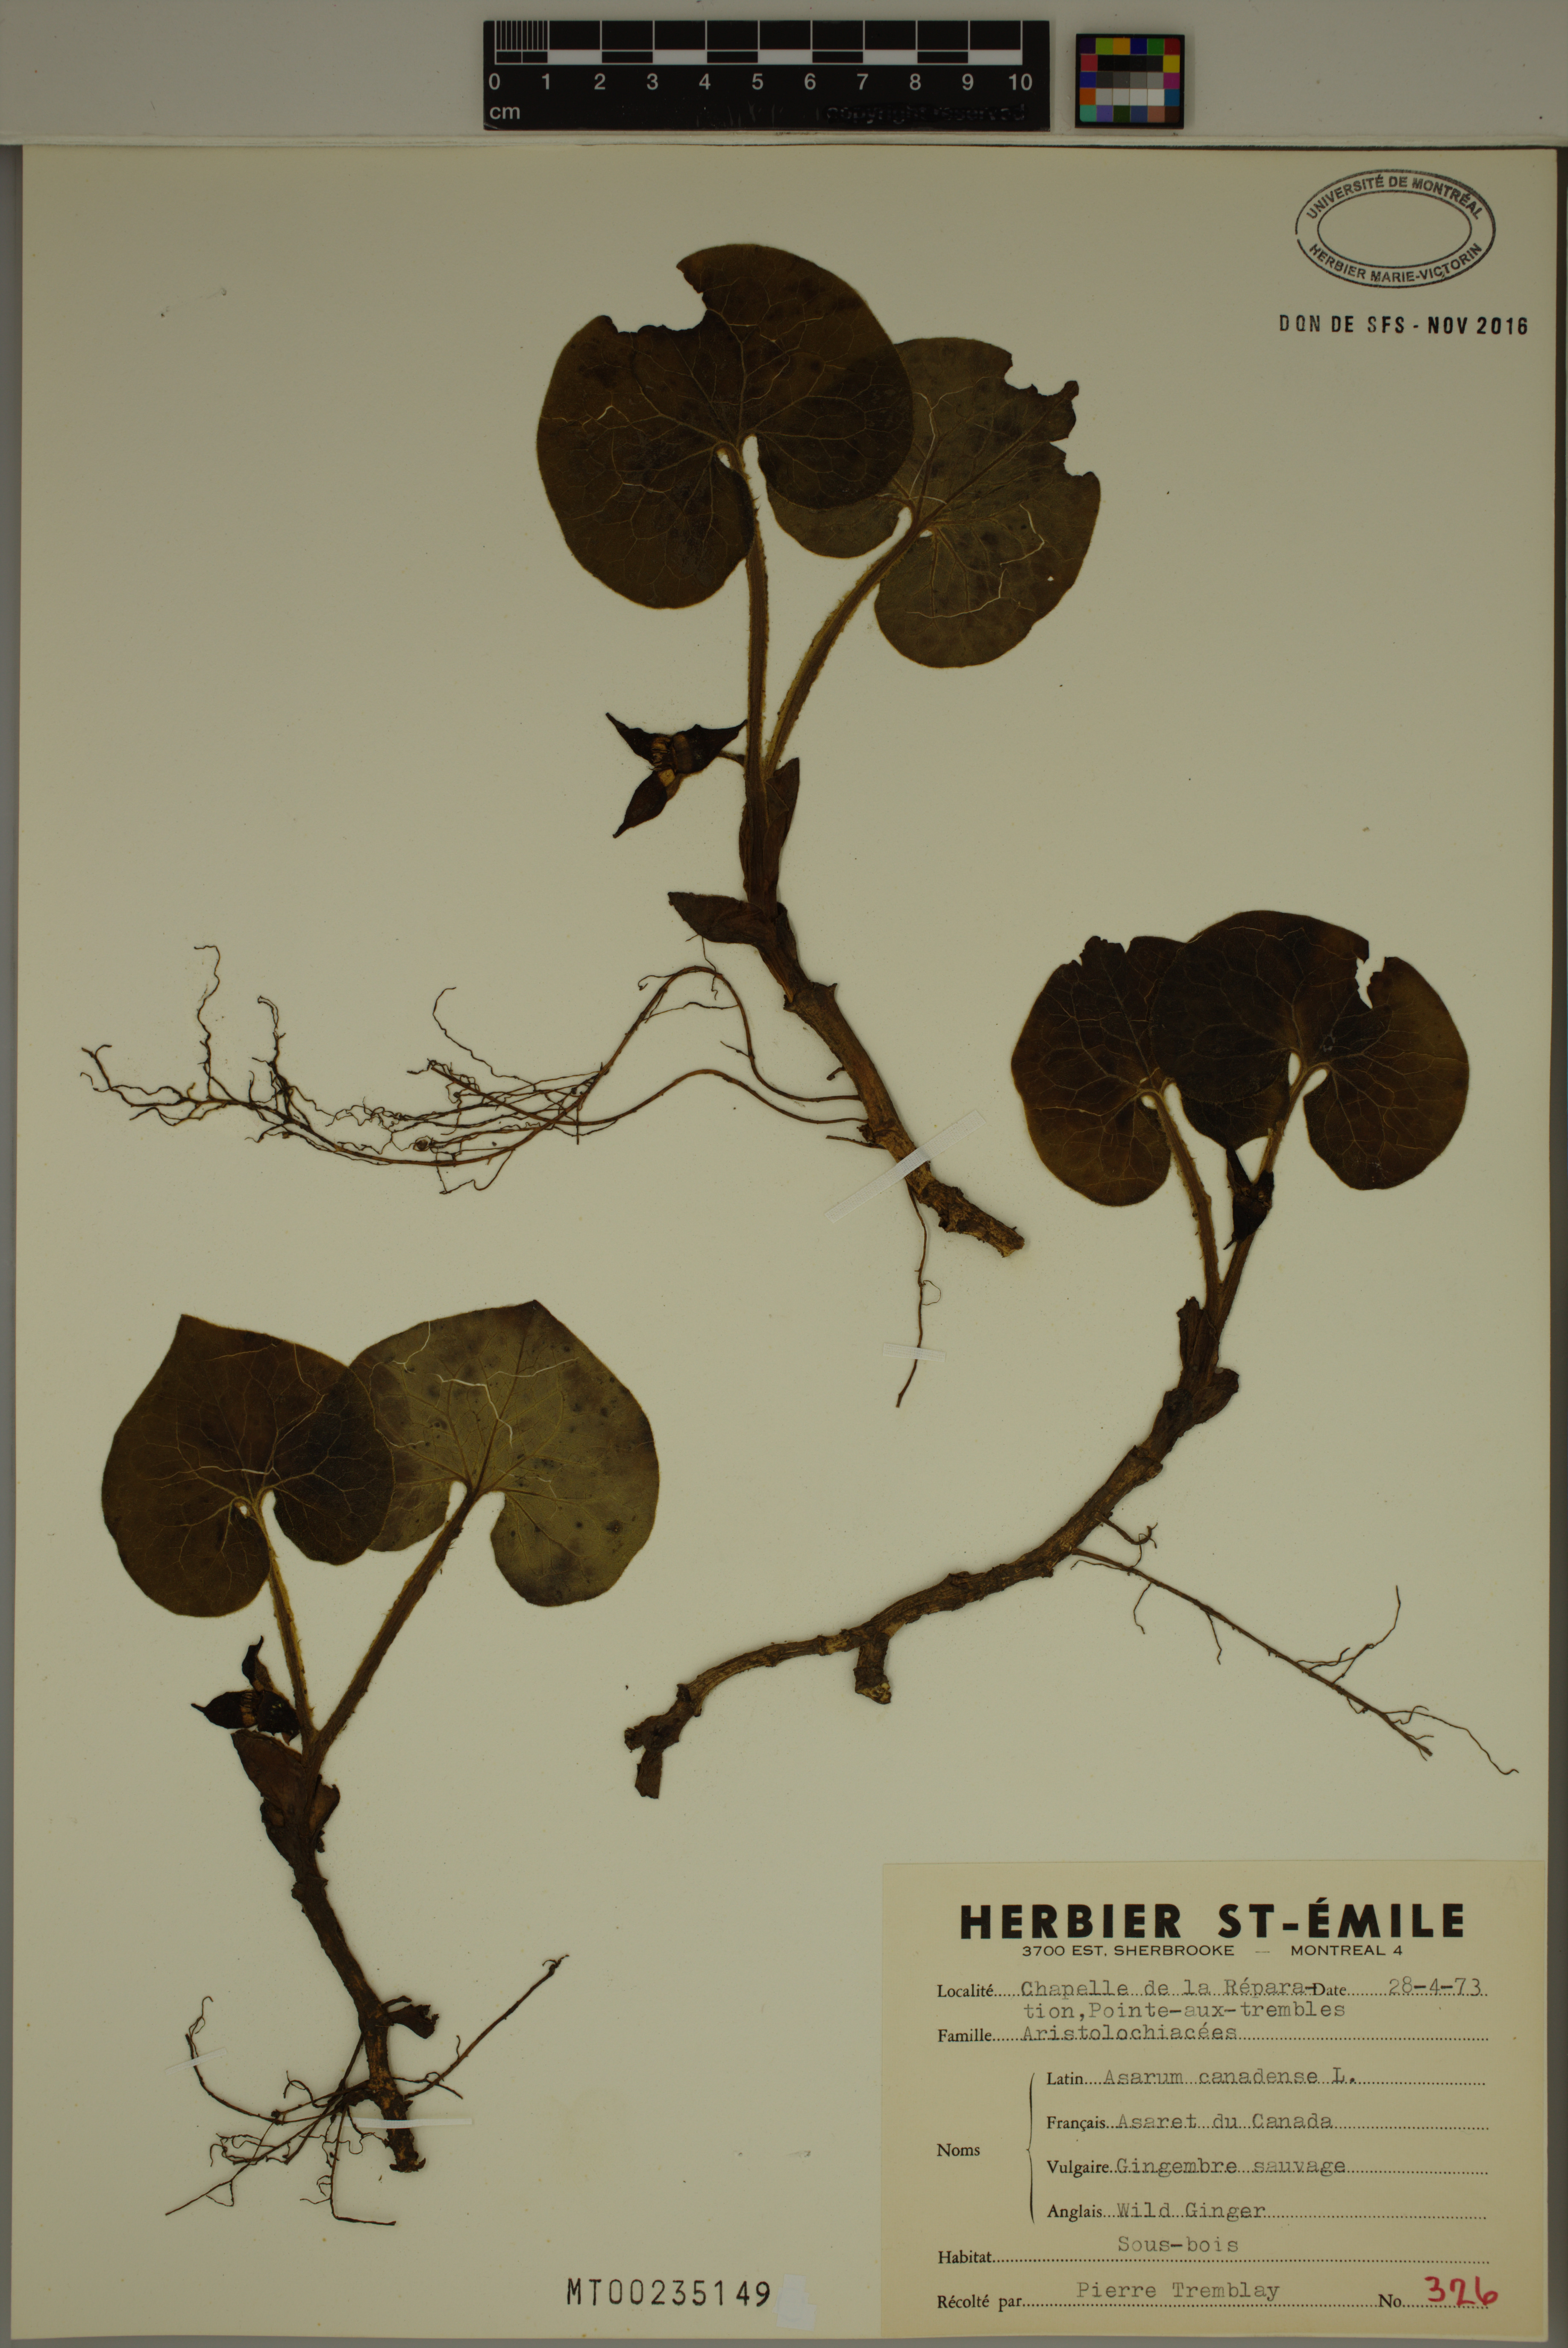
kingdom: Plantae
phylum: Tracheophyta
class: Magnoliopsida
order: Piperales
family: Aristolochiaceae
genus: Asarum
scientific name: Asarum canadense
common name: Wild ginger
